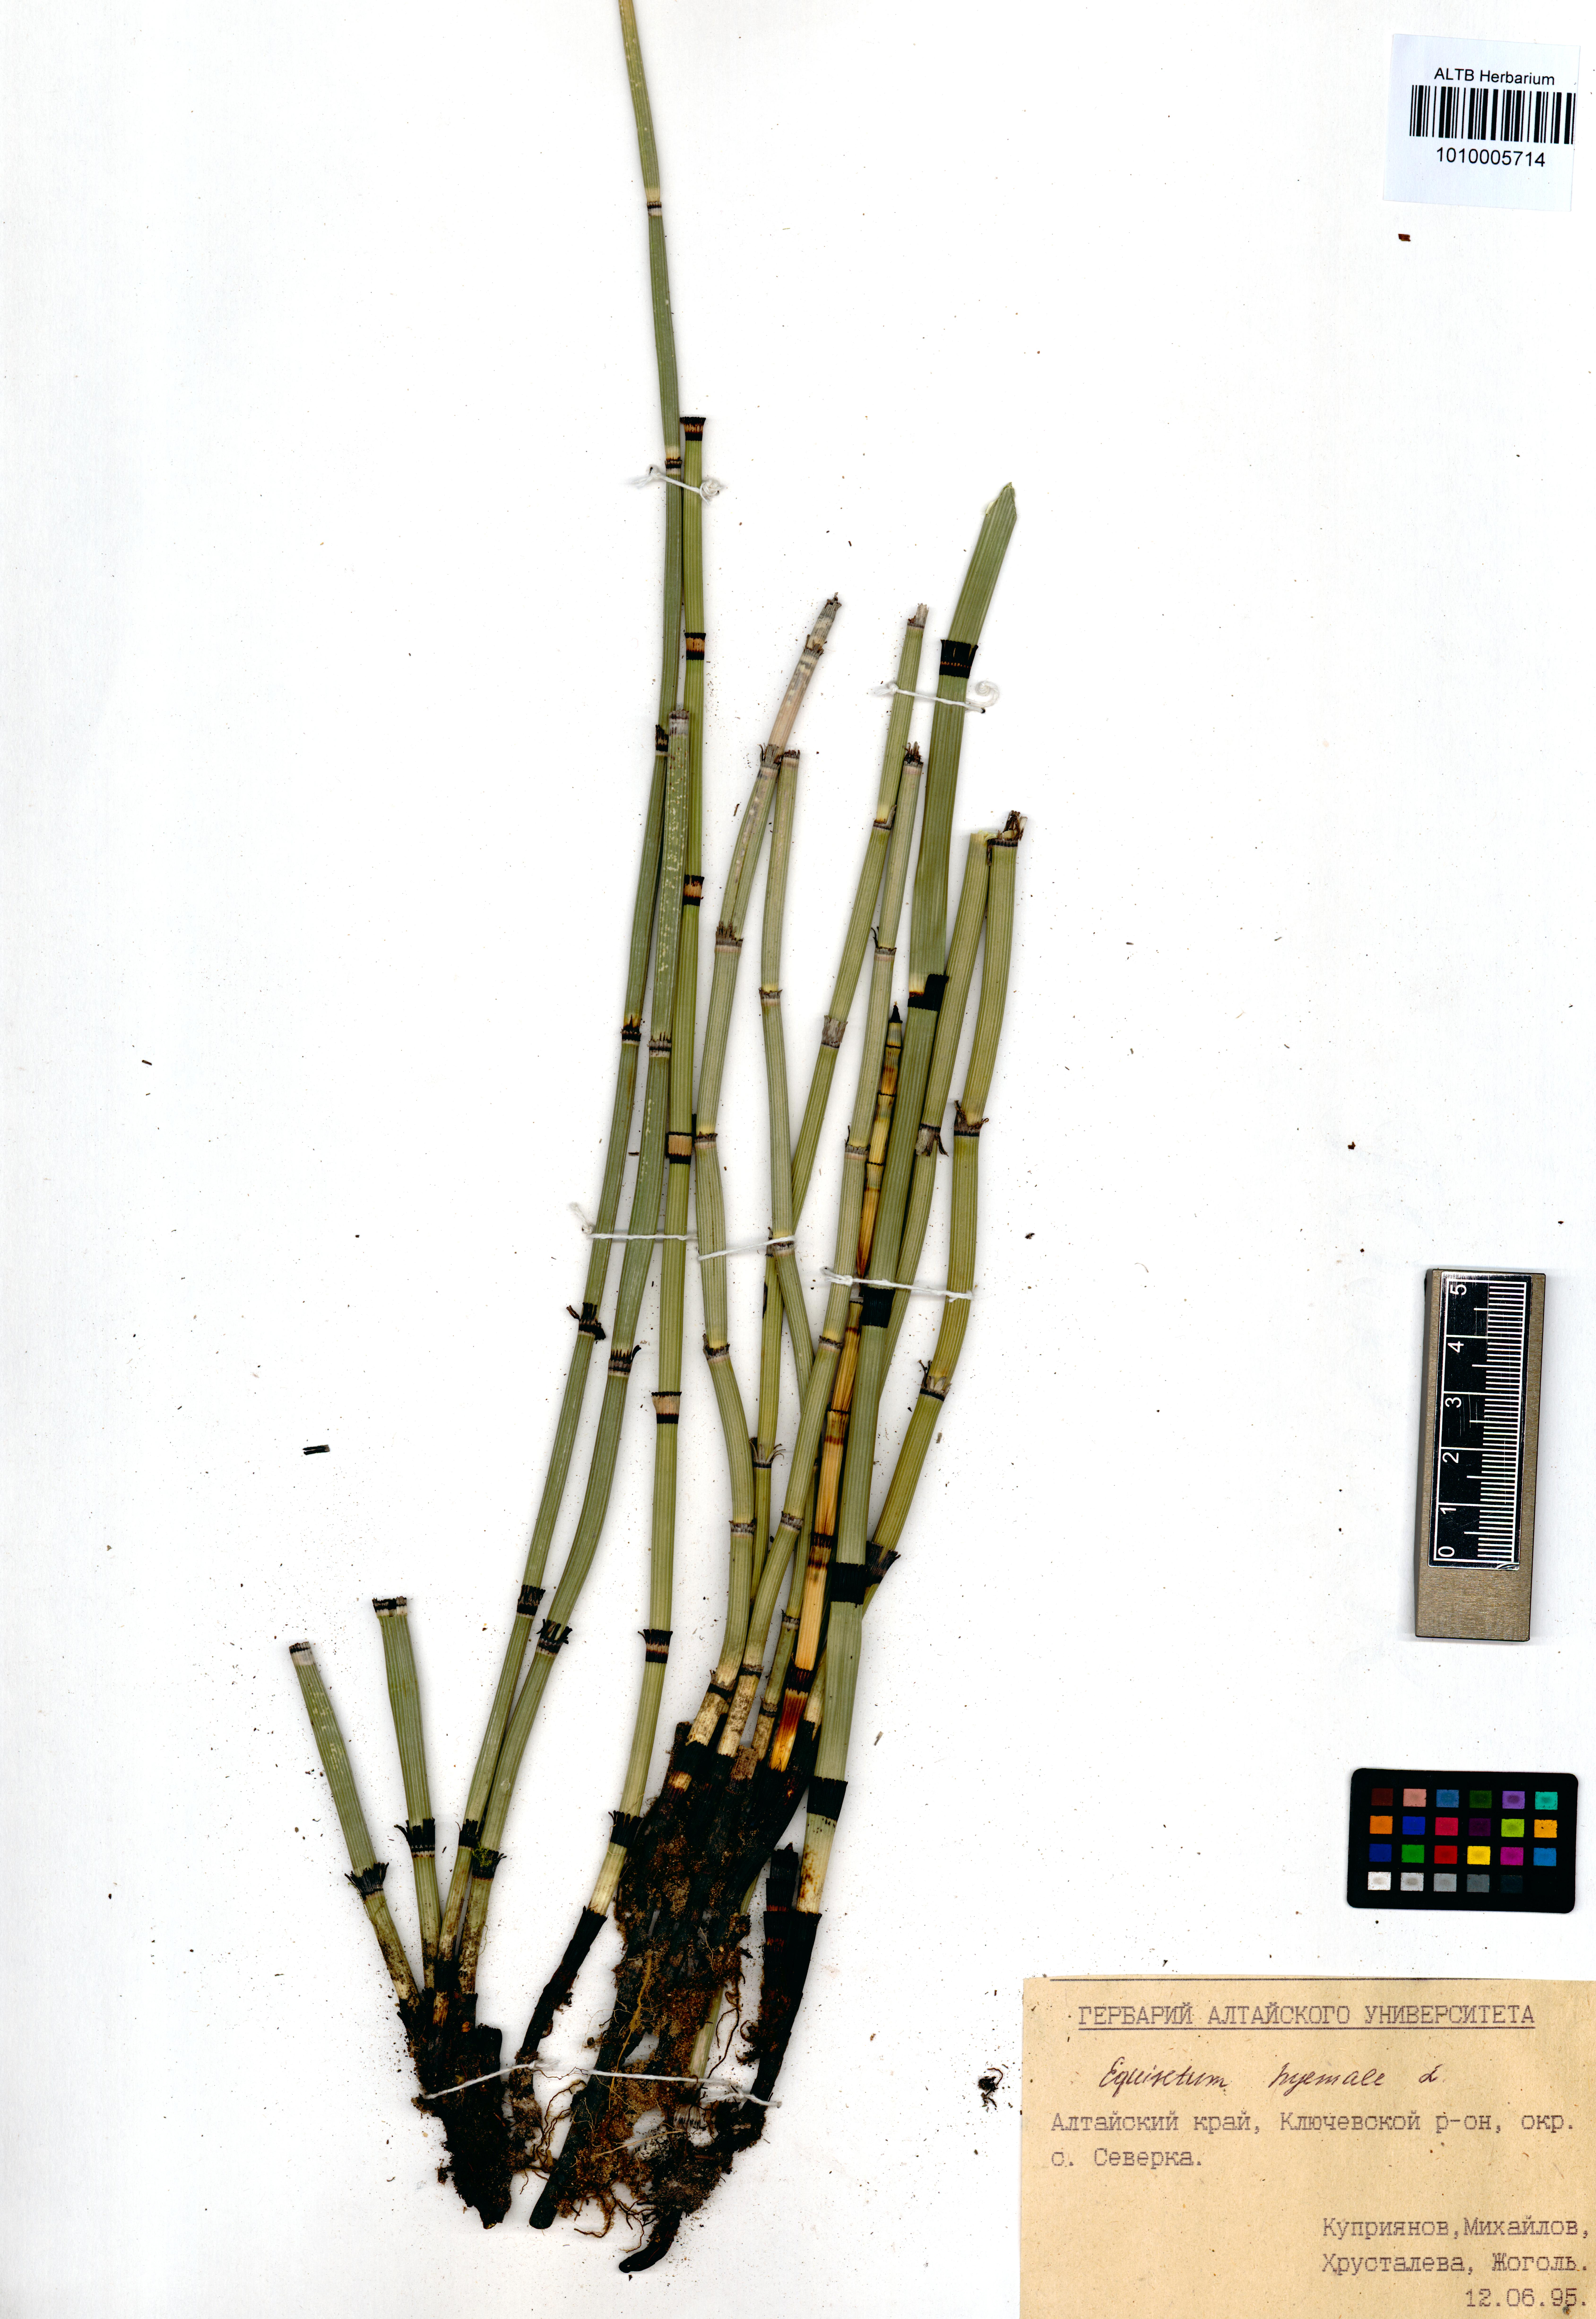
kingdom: Plantae
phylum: Tracheophyta
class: Polypodiopsida
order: Equisetales
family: Equisetaceae
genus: Equisetum
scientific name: Equisetum hyemale
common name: Rough horsetail
